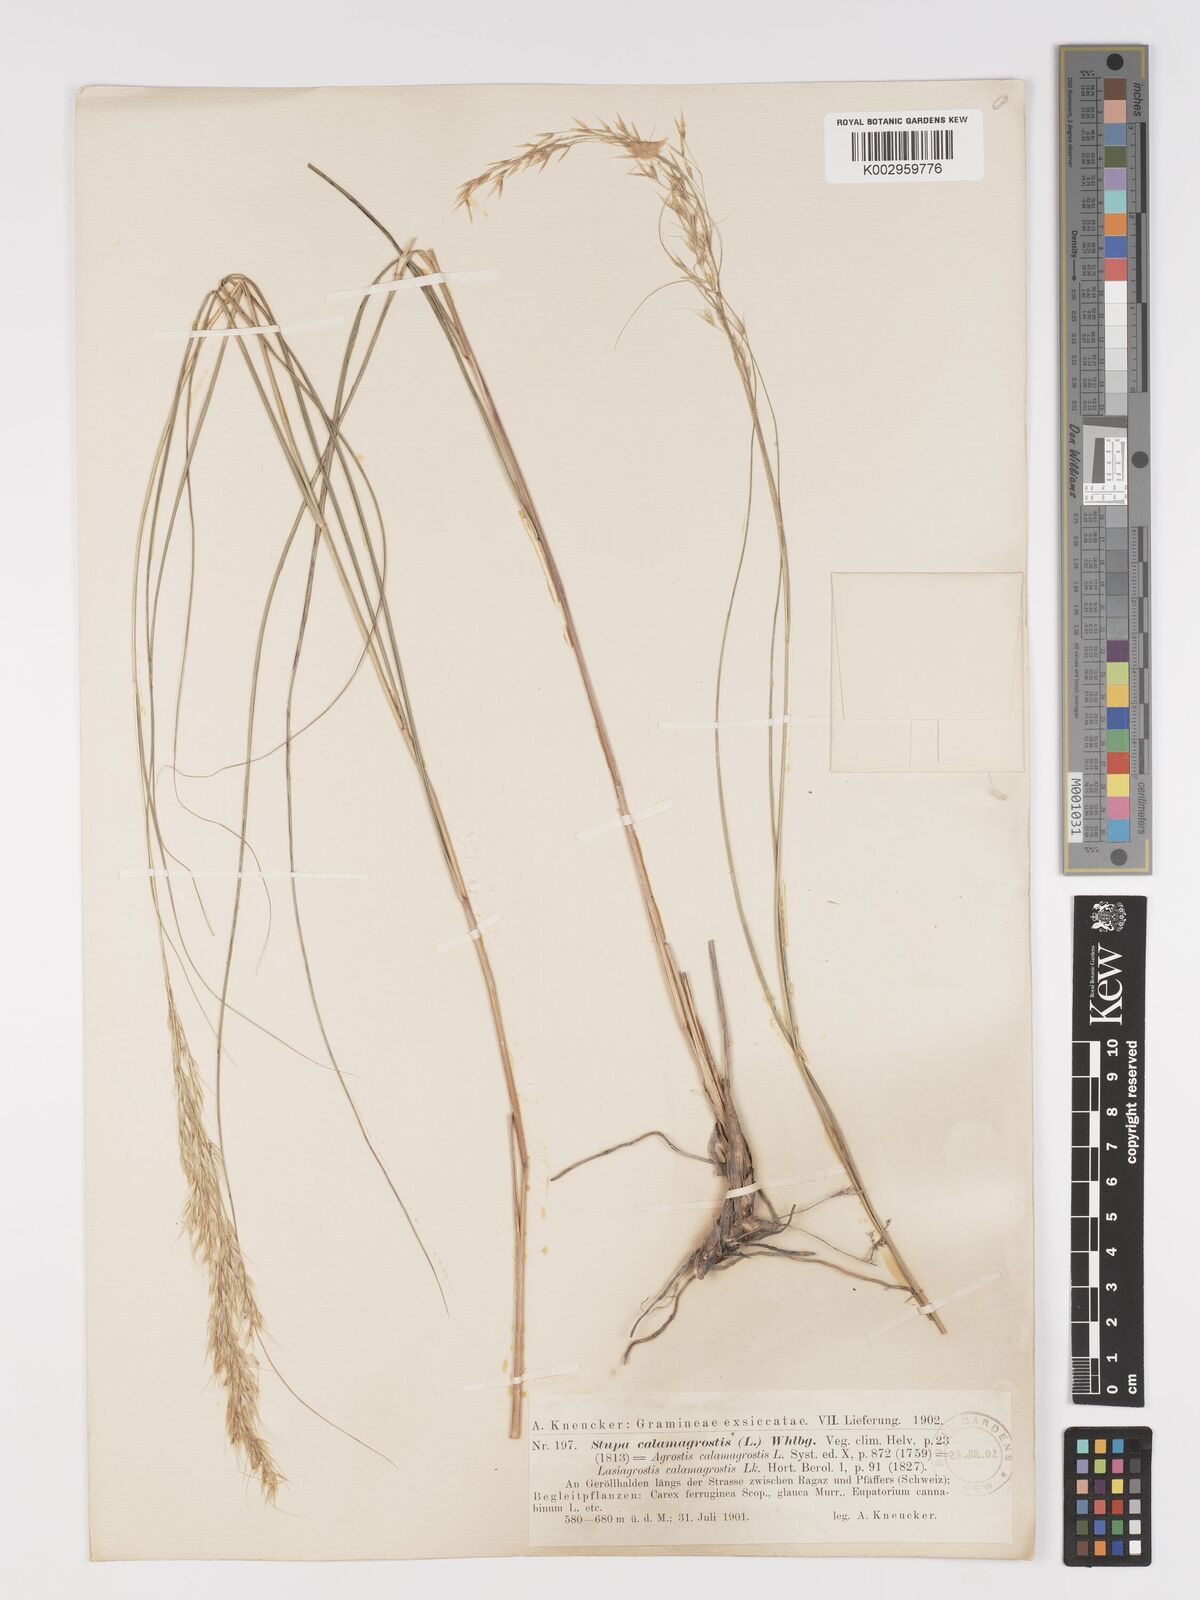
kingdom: Plantae
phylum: Tracheophyta
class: Liliopsida
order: Poales
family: Poaceae
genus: Achnatherum
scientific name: Achnatherum calamagrostis
